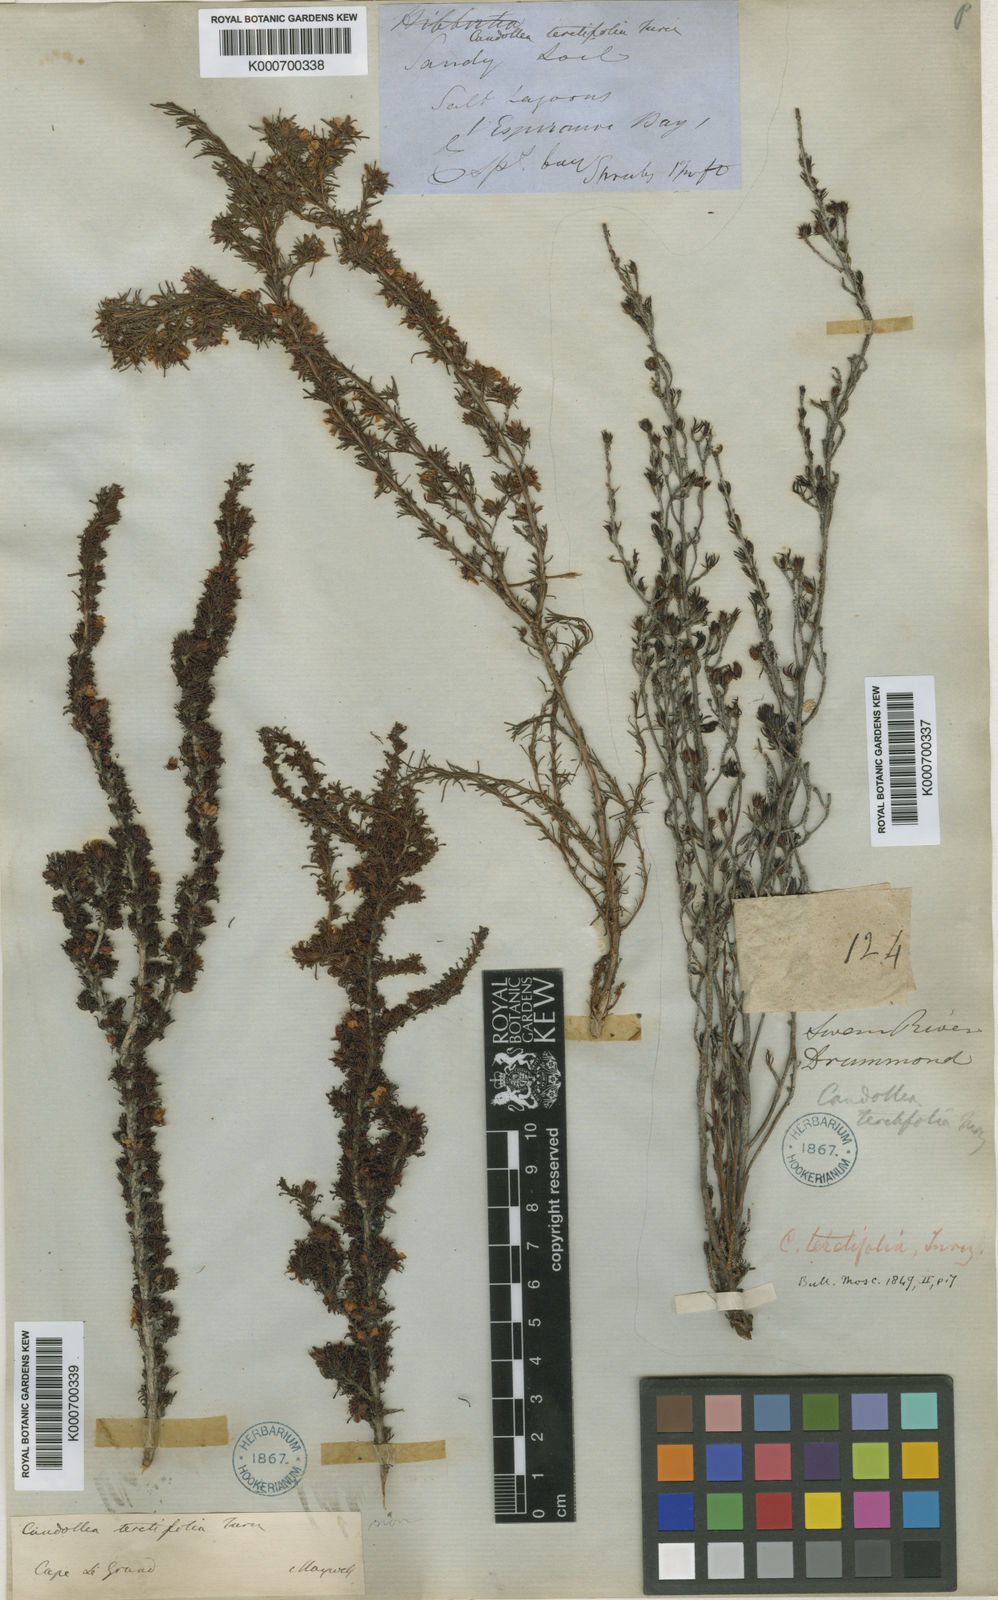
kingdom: Plantae
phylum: Tracheophyta
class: Magnoliopsida
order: Dilleniales
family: Dilleniaceae
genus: Hibbertia
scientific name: Hibbertia hibbertioides
